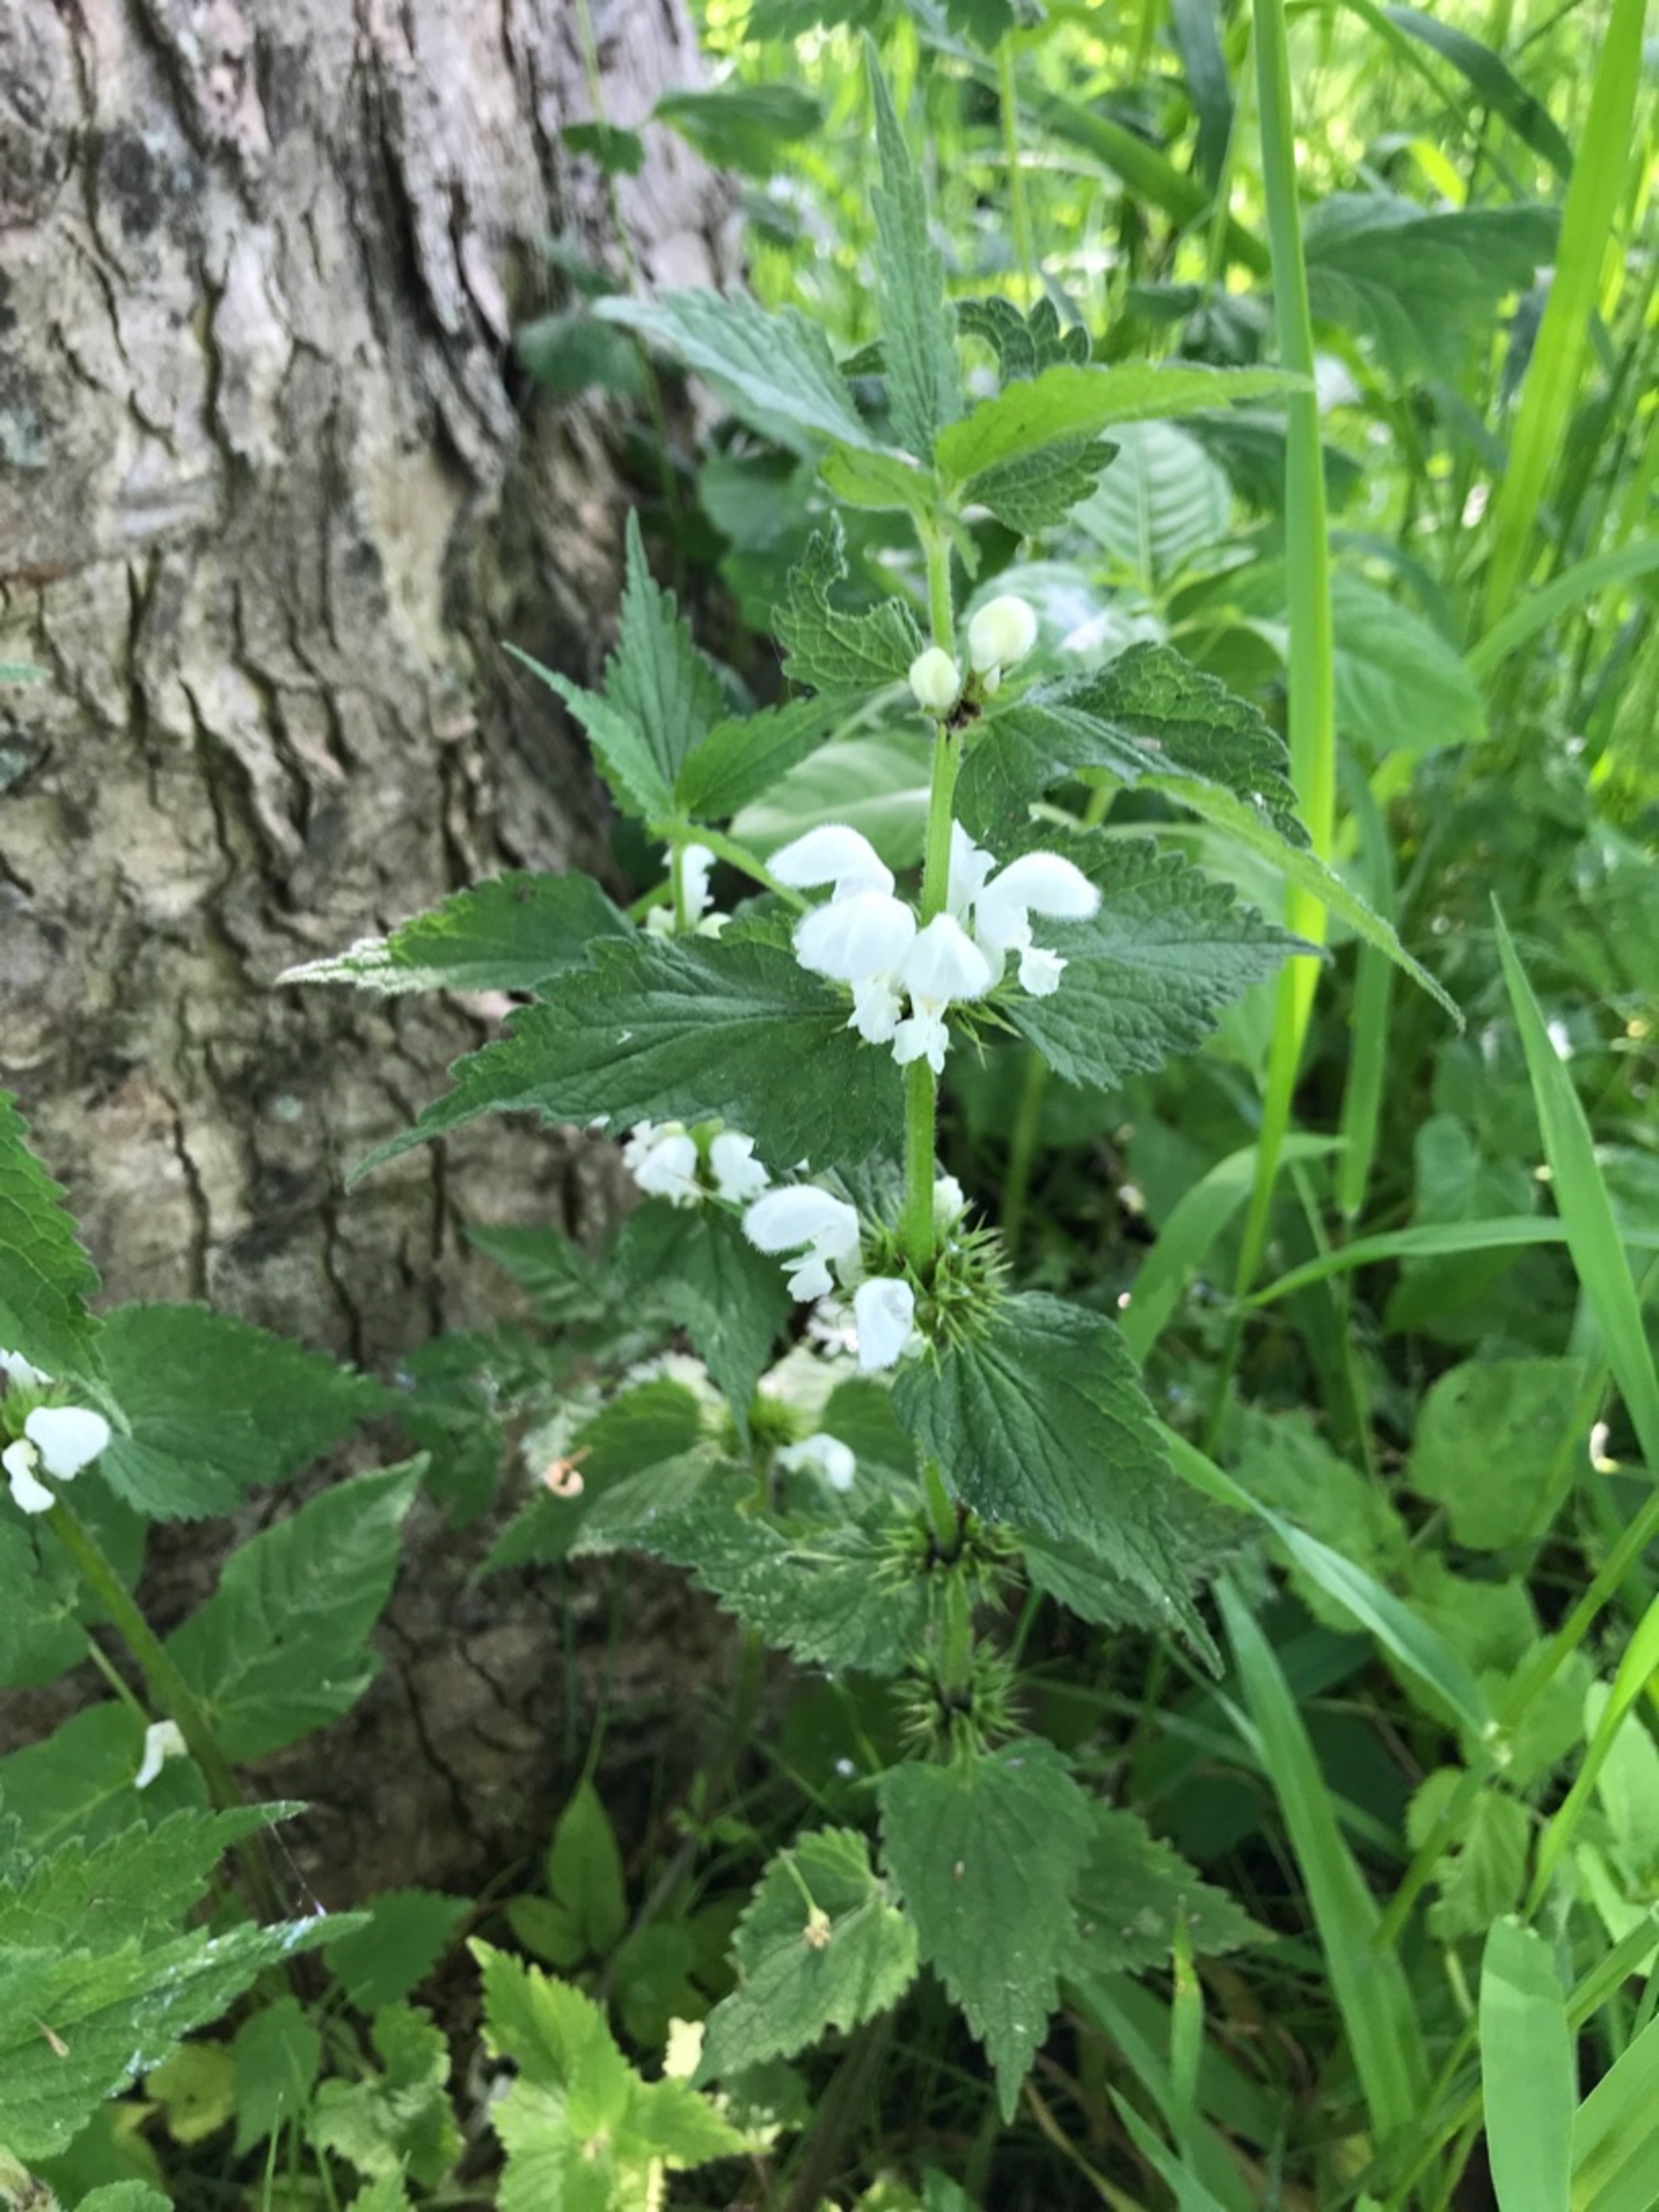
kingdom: Plantae
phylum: Tracheophyta
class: Magnoliopsida
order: Lamiales
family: Lamiaceae
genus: Lamium
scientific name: Lamium album
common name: Døvnælde
